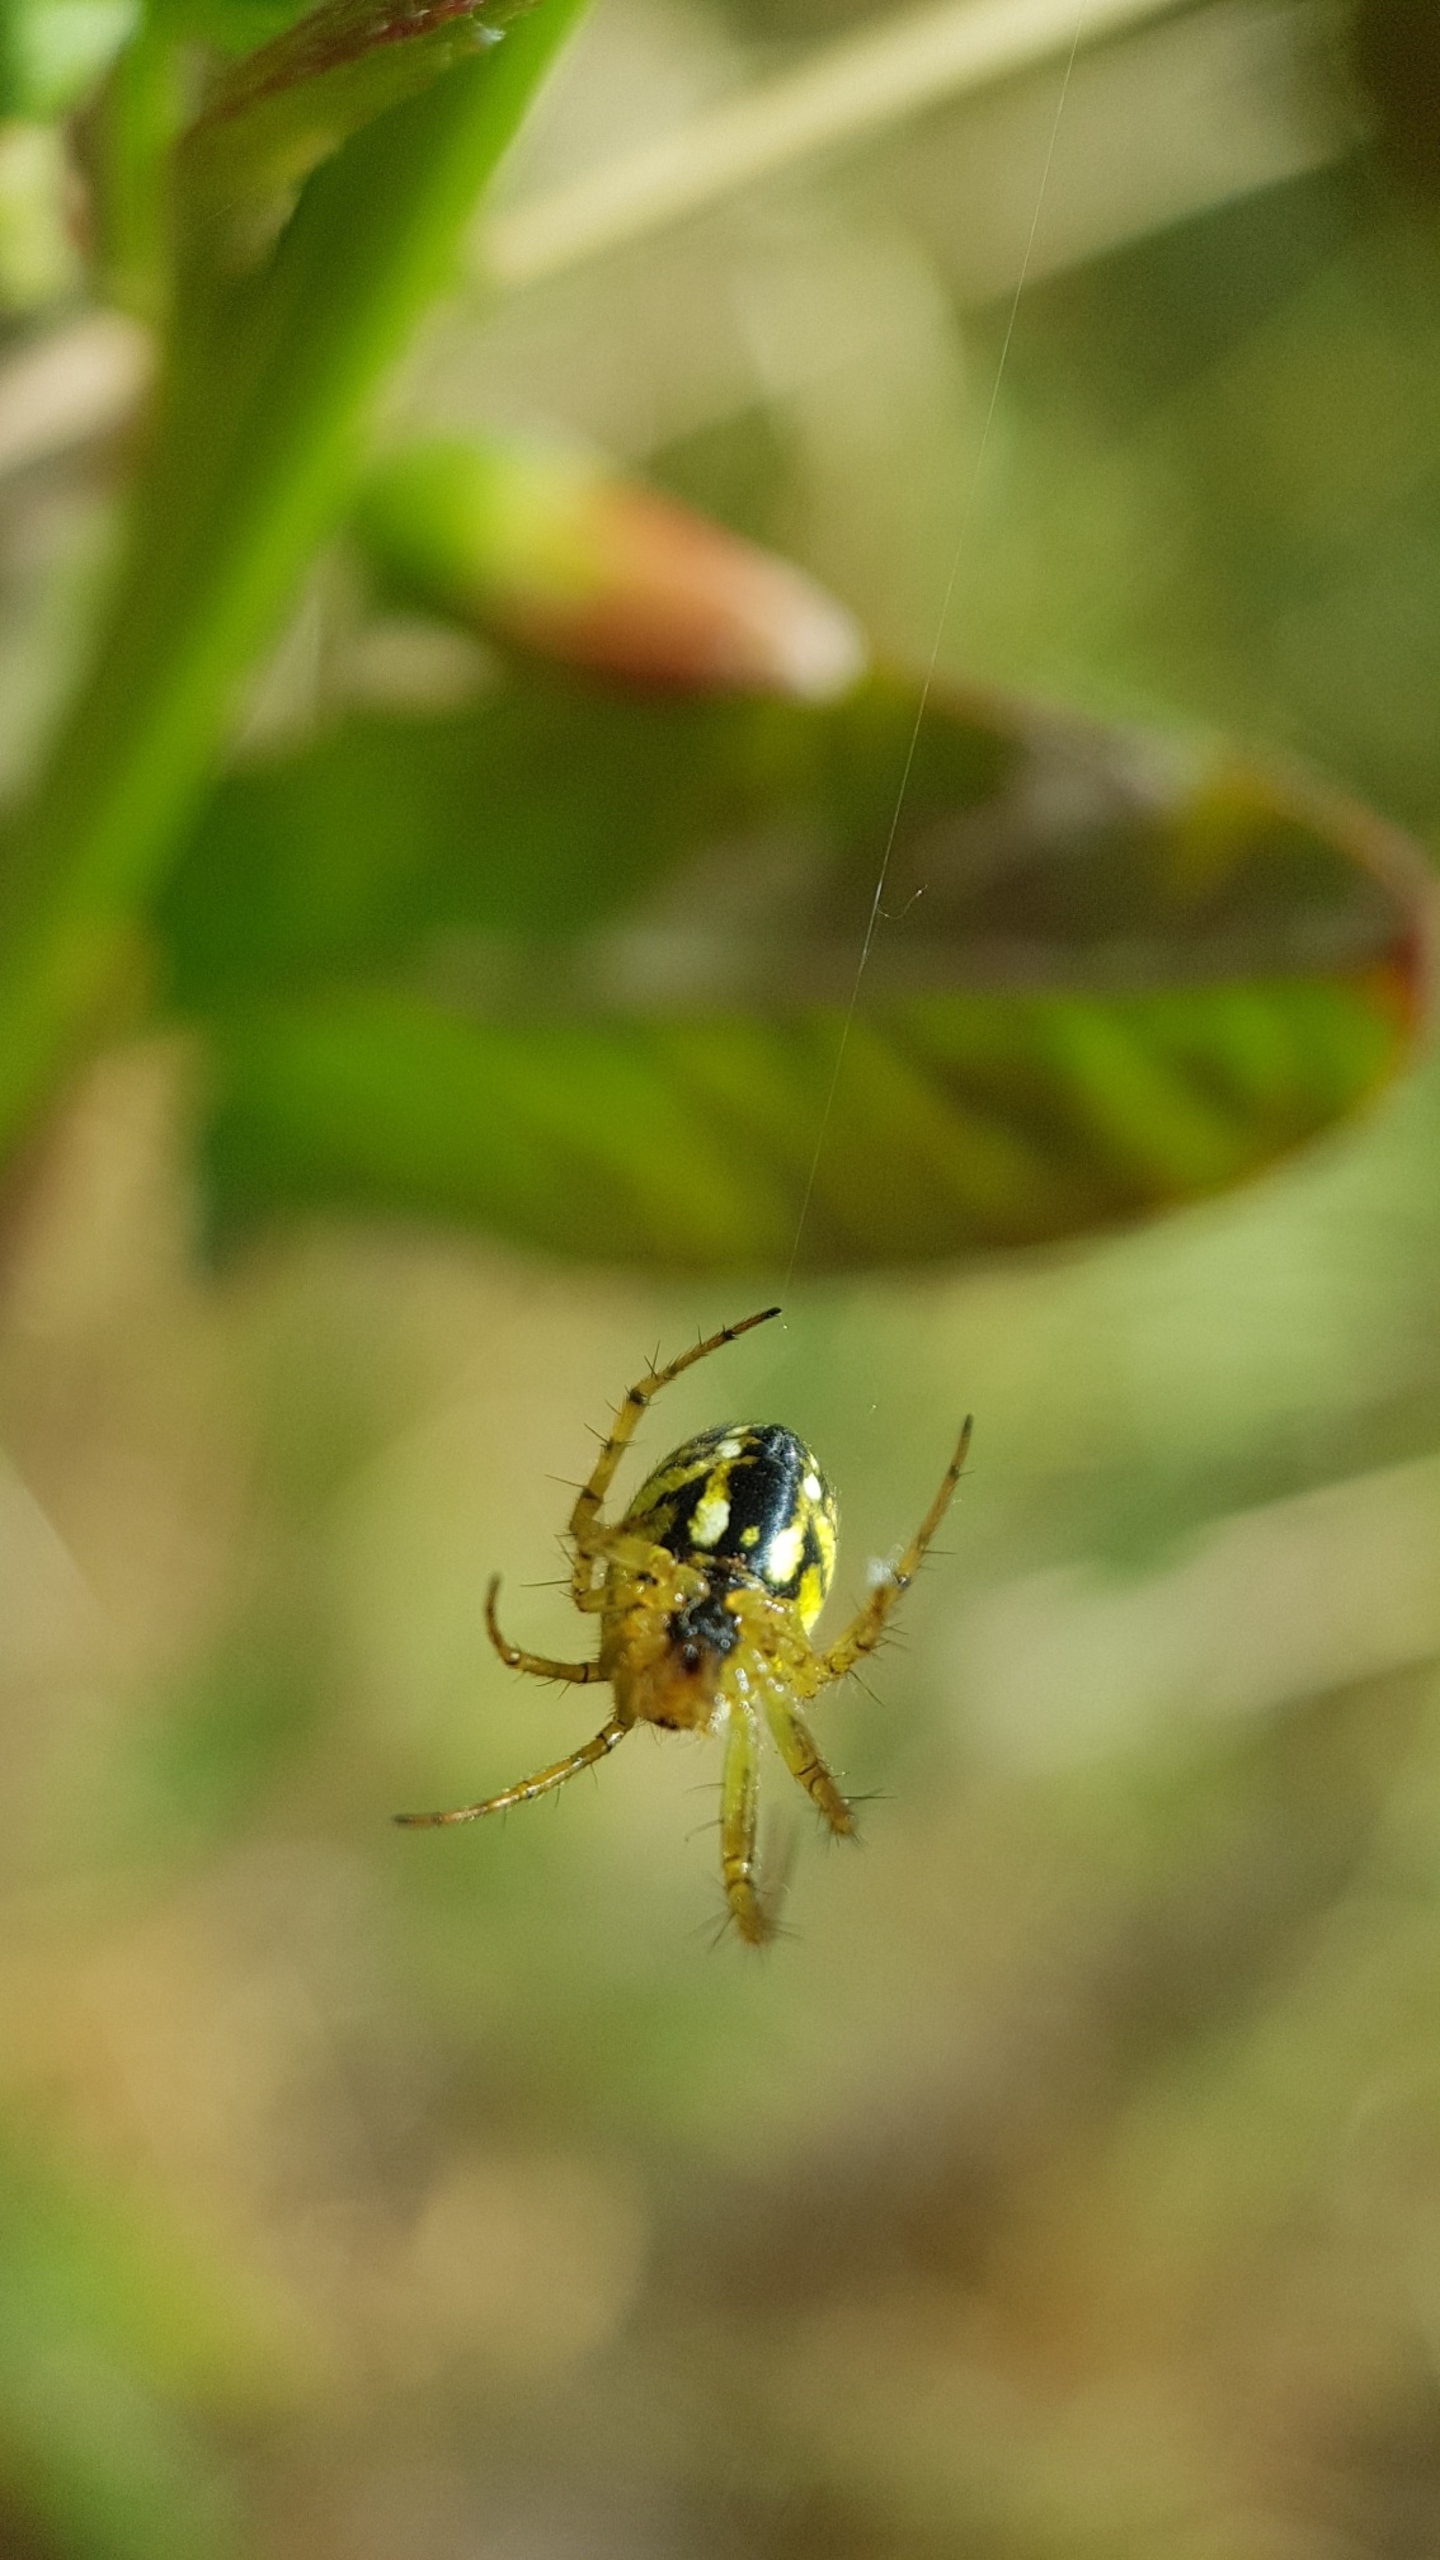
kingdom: Animalia
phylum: Arthropoda
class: Arachnida
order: Araneae
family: Araneidae
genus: Mangora
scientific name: Mangora acalypha
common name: Sortstribet hedehjulspinder
